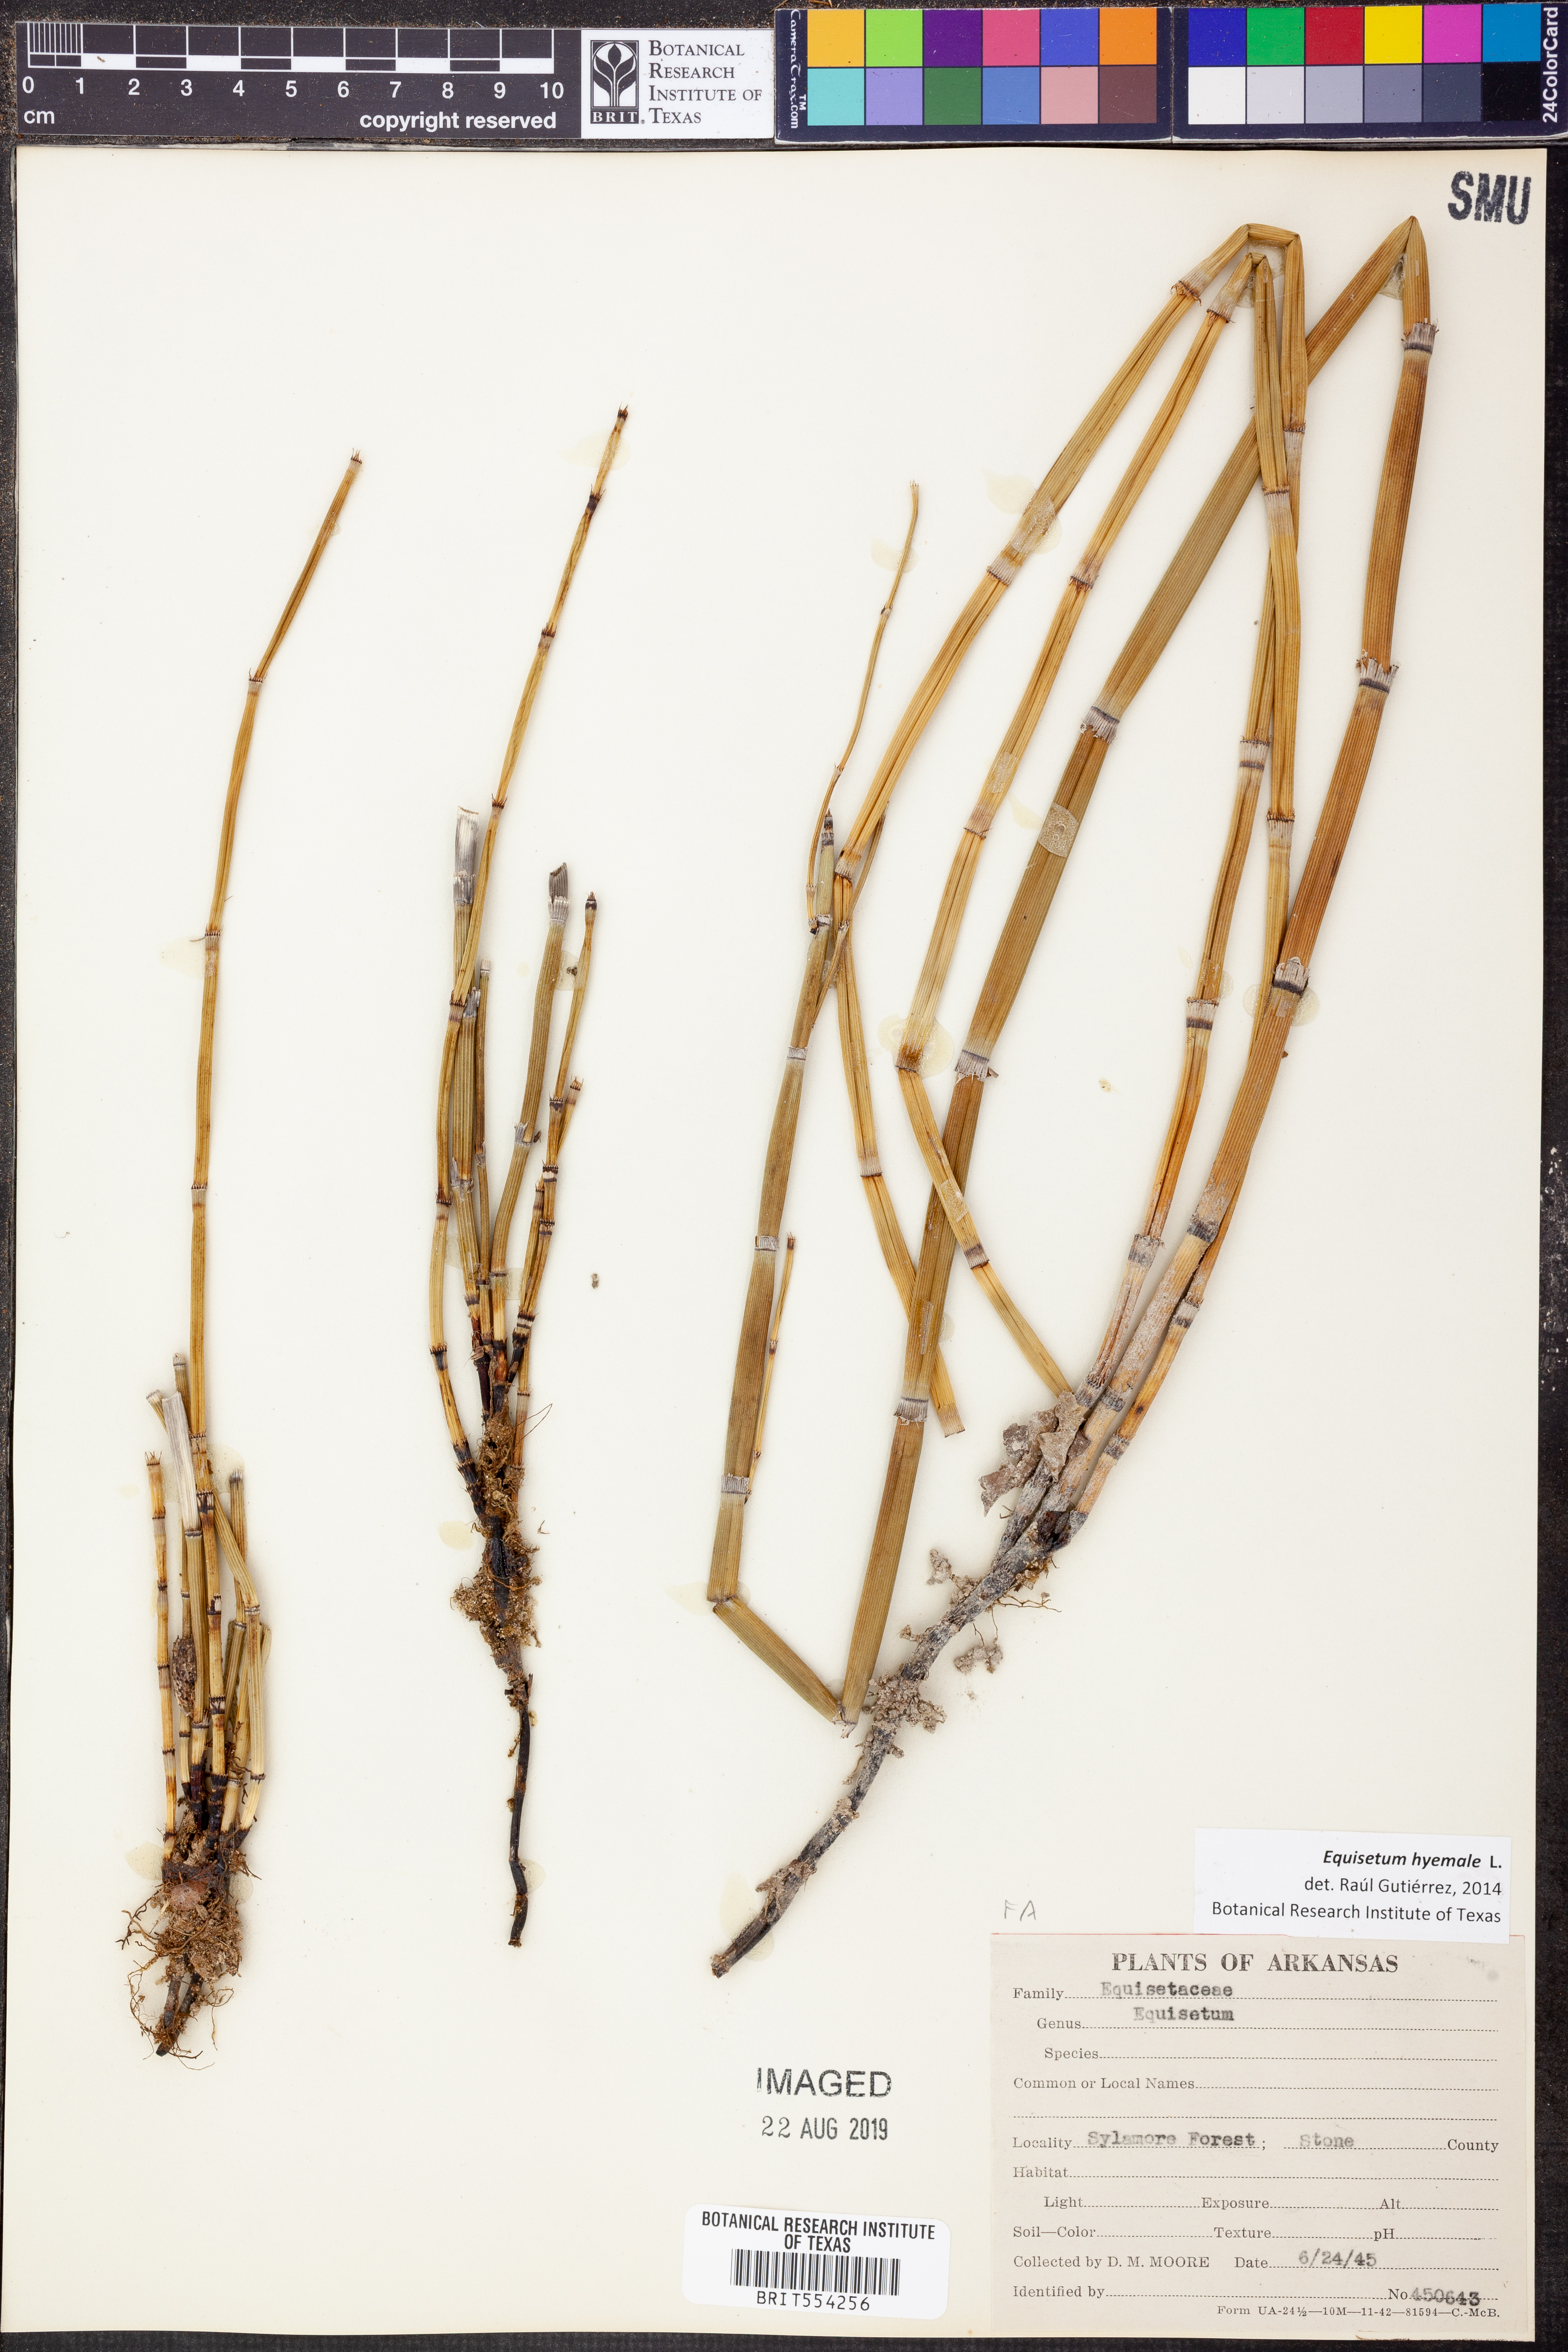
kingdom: Plantae
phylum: Tracheophyta
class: Polypodiopsida
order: Equisetales
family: Equisetaceae
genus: Equisetum
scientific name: Equisetum hyemale
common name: Rough horsetail
